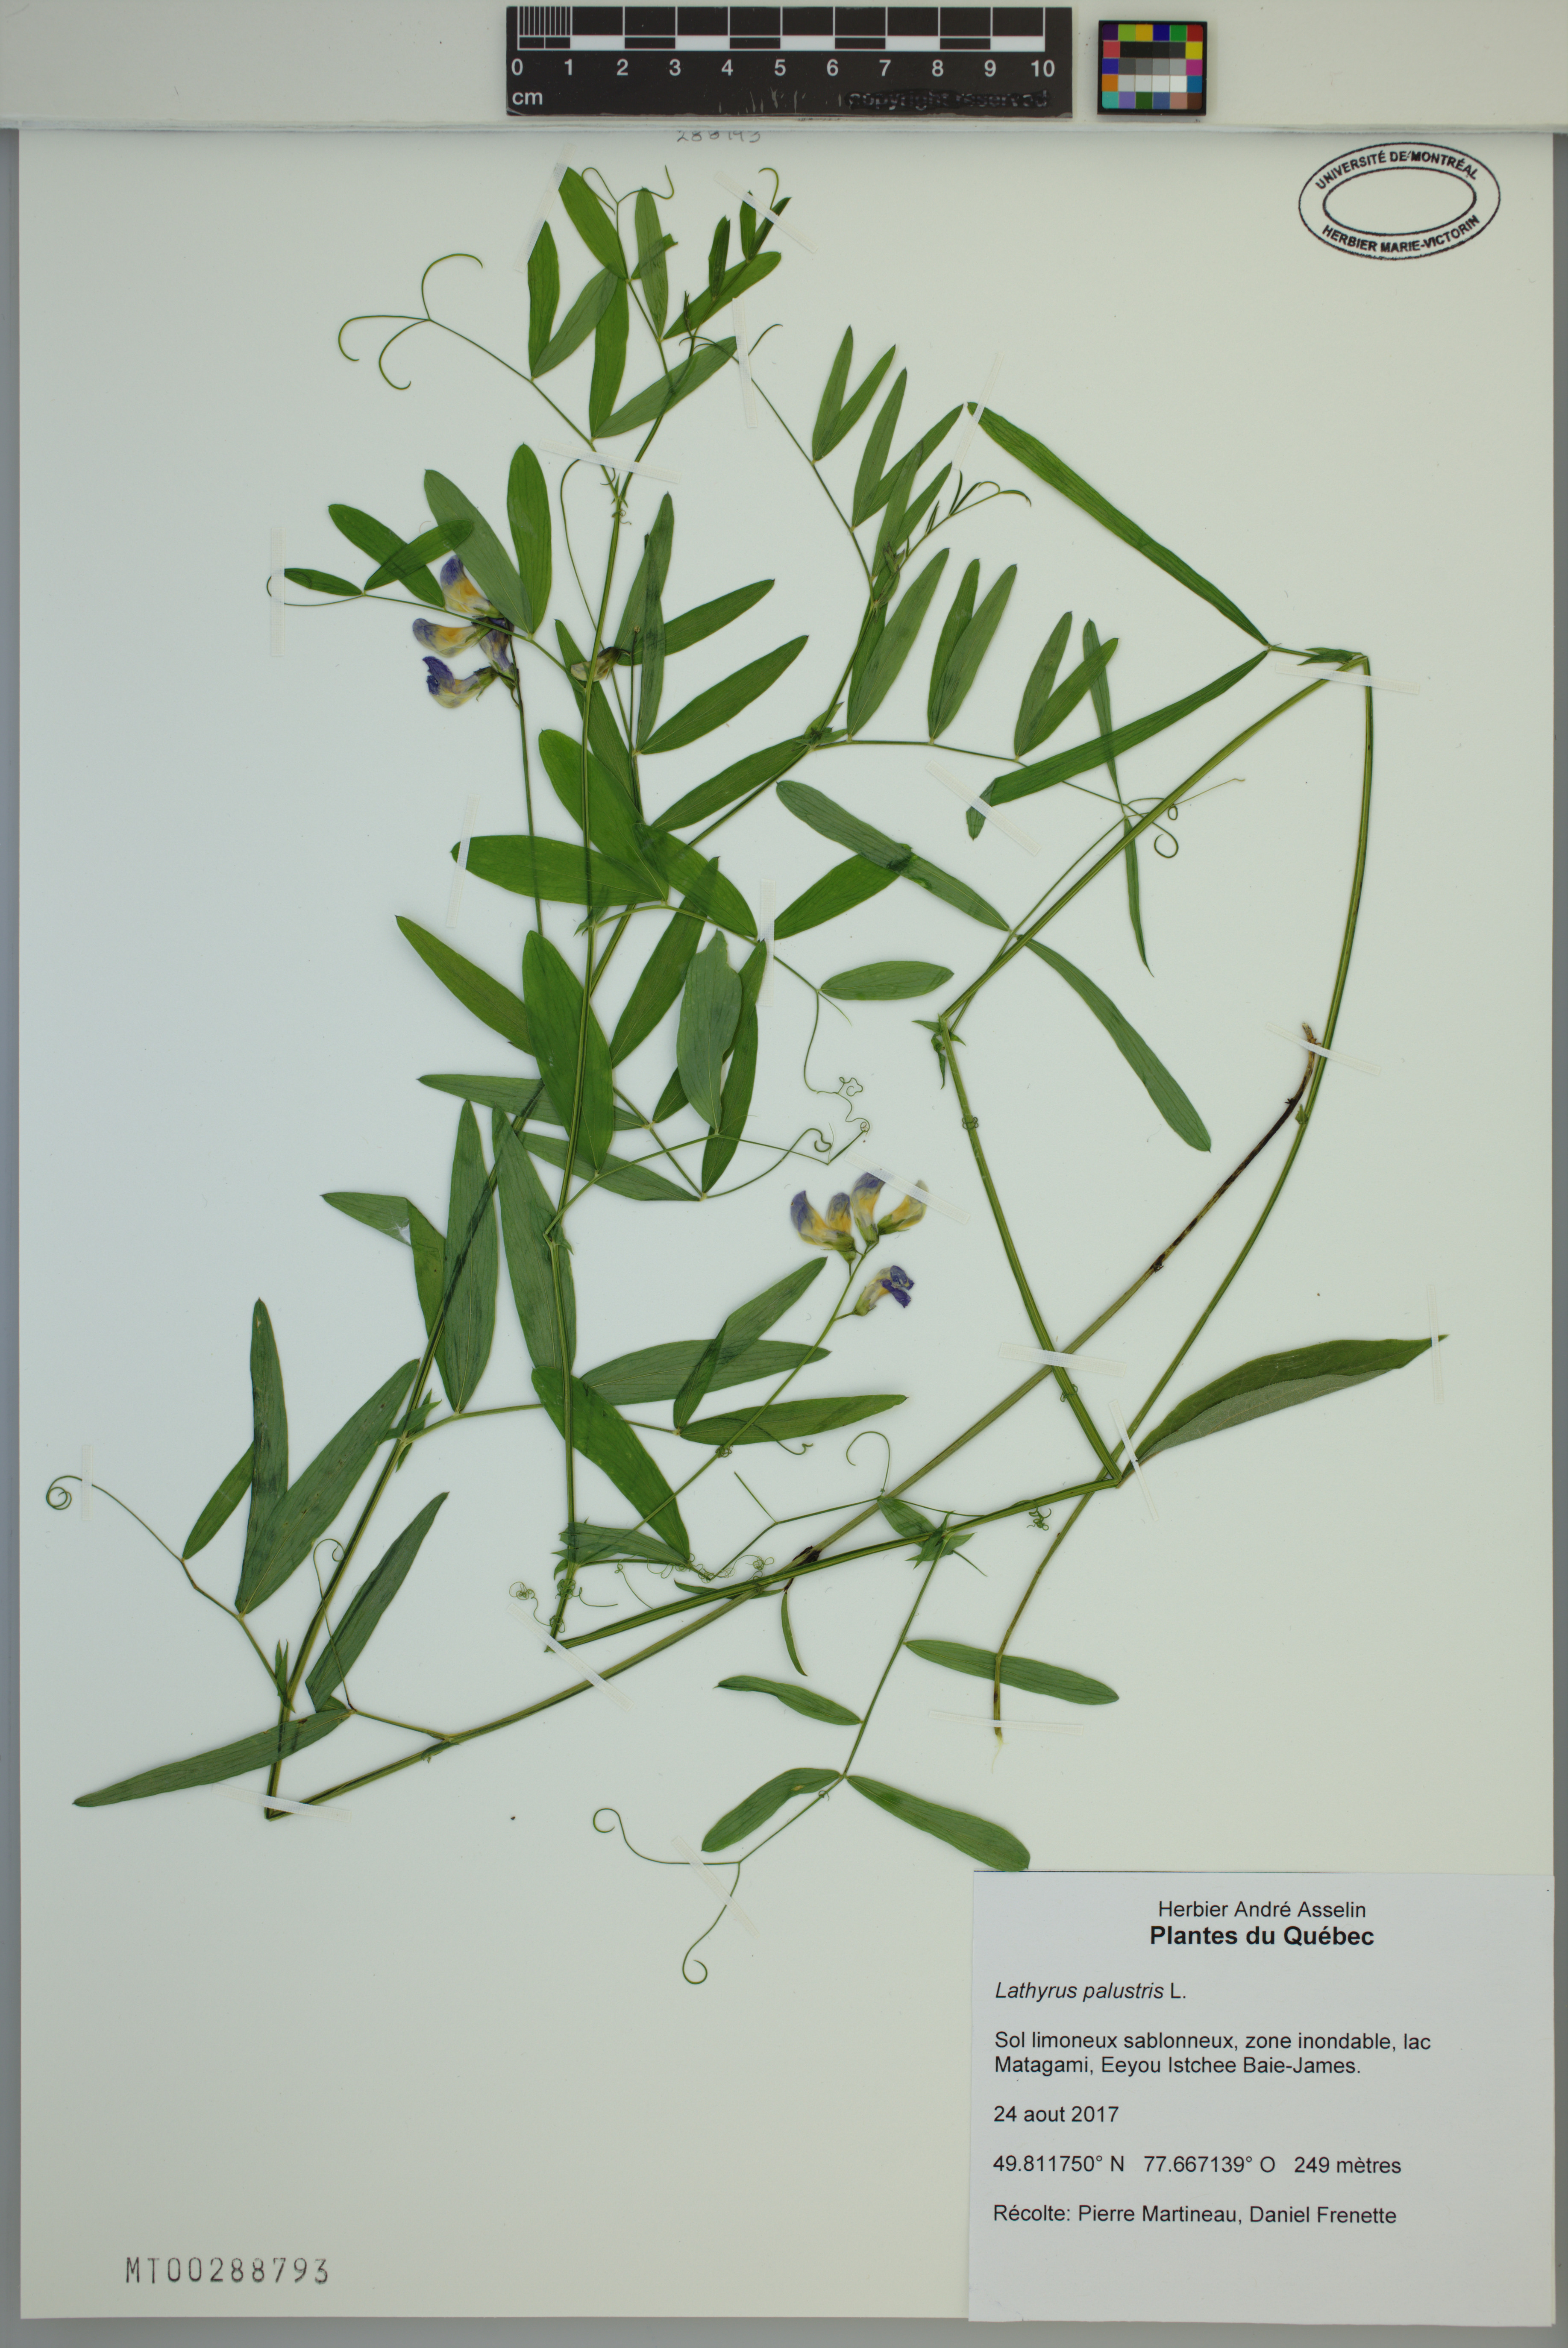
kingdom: Plantae
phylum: Tracheophyta
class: Magnoliopsida
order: Fabales
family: Fabaceae
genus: Lathyrus
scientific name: Lathyrus palustris
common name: Marsh pea
